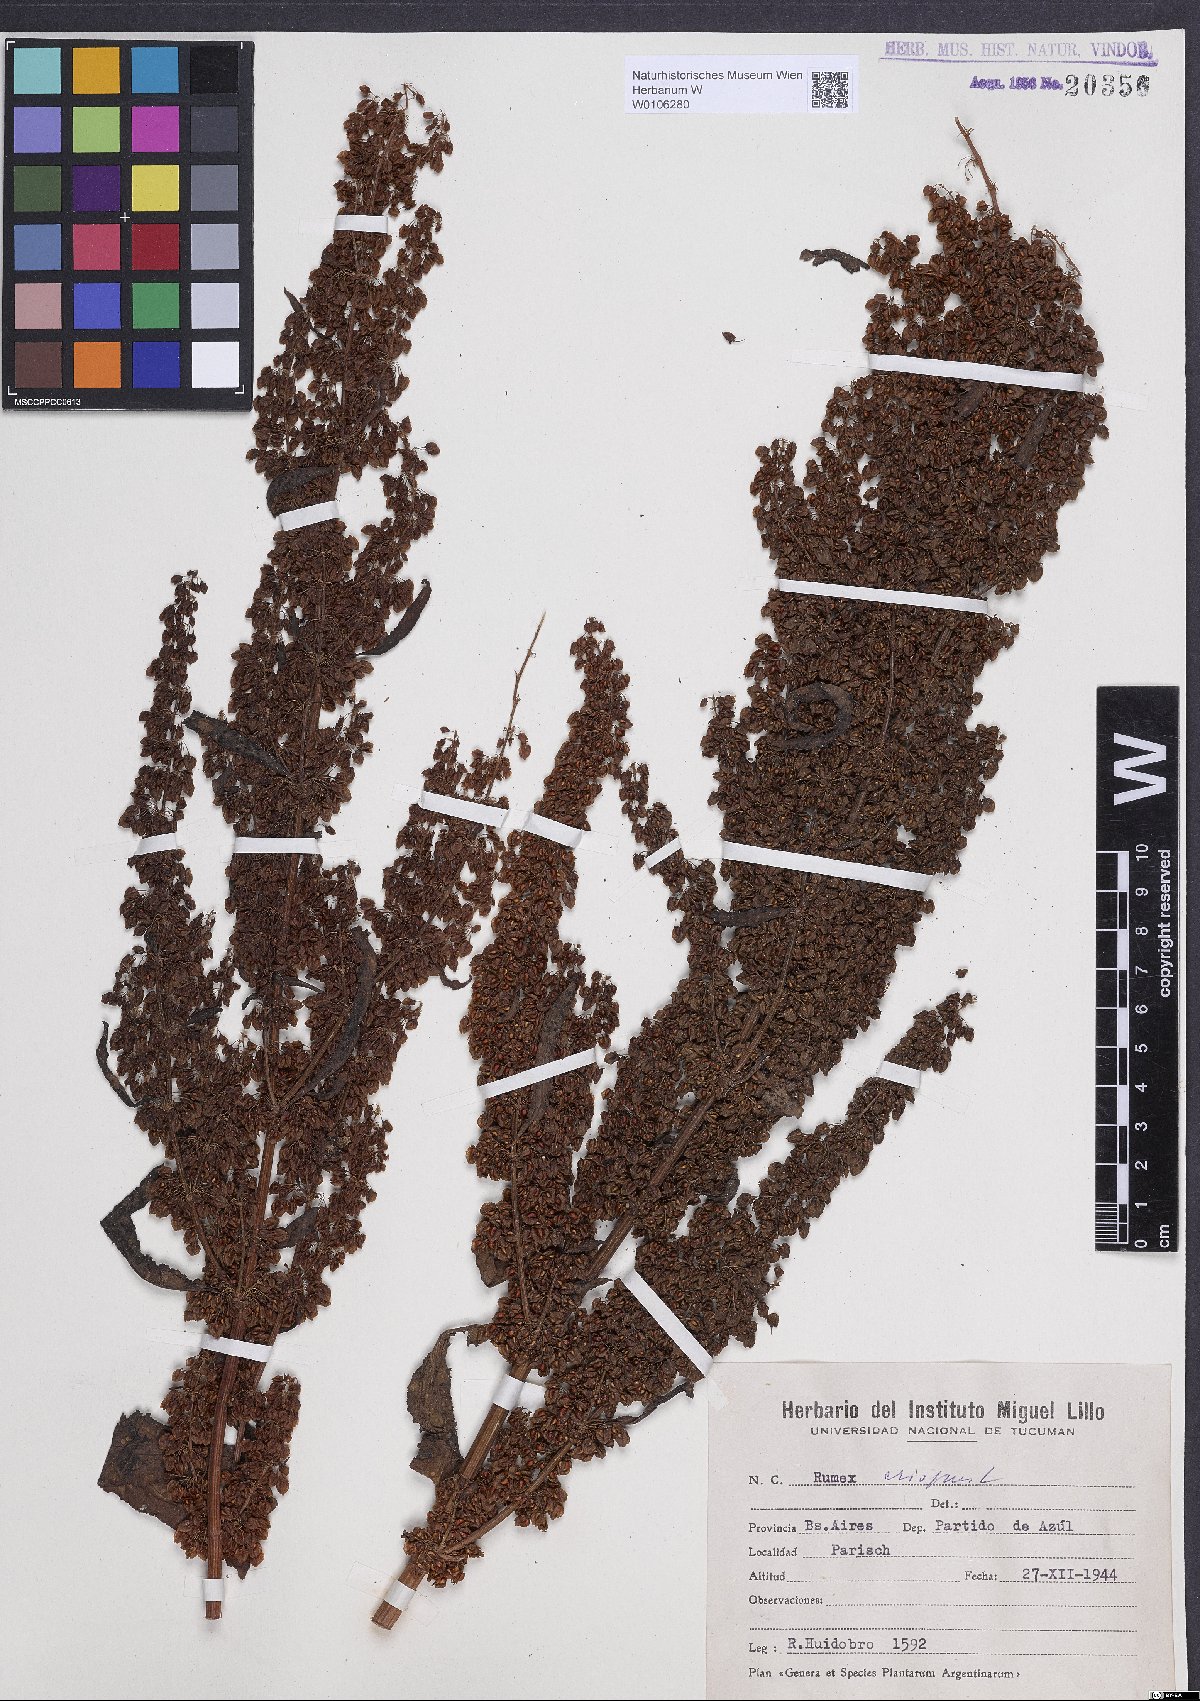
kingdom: Plantae
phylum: Tracheophyta
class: Magnoliopsida
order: Caryophyllales
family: Polygonaceae
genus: Rumex
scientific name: Rumex crispus
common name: Curled dock
